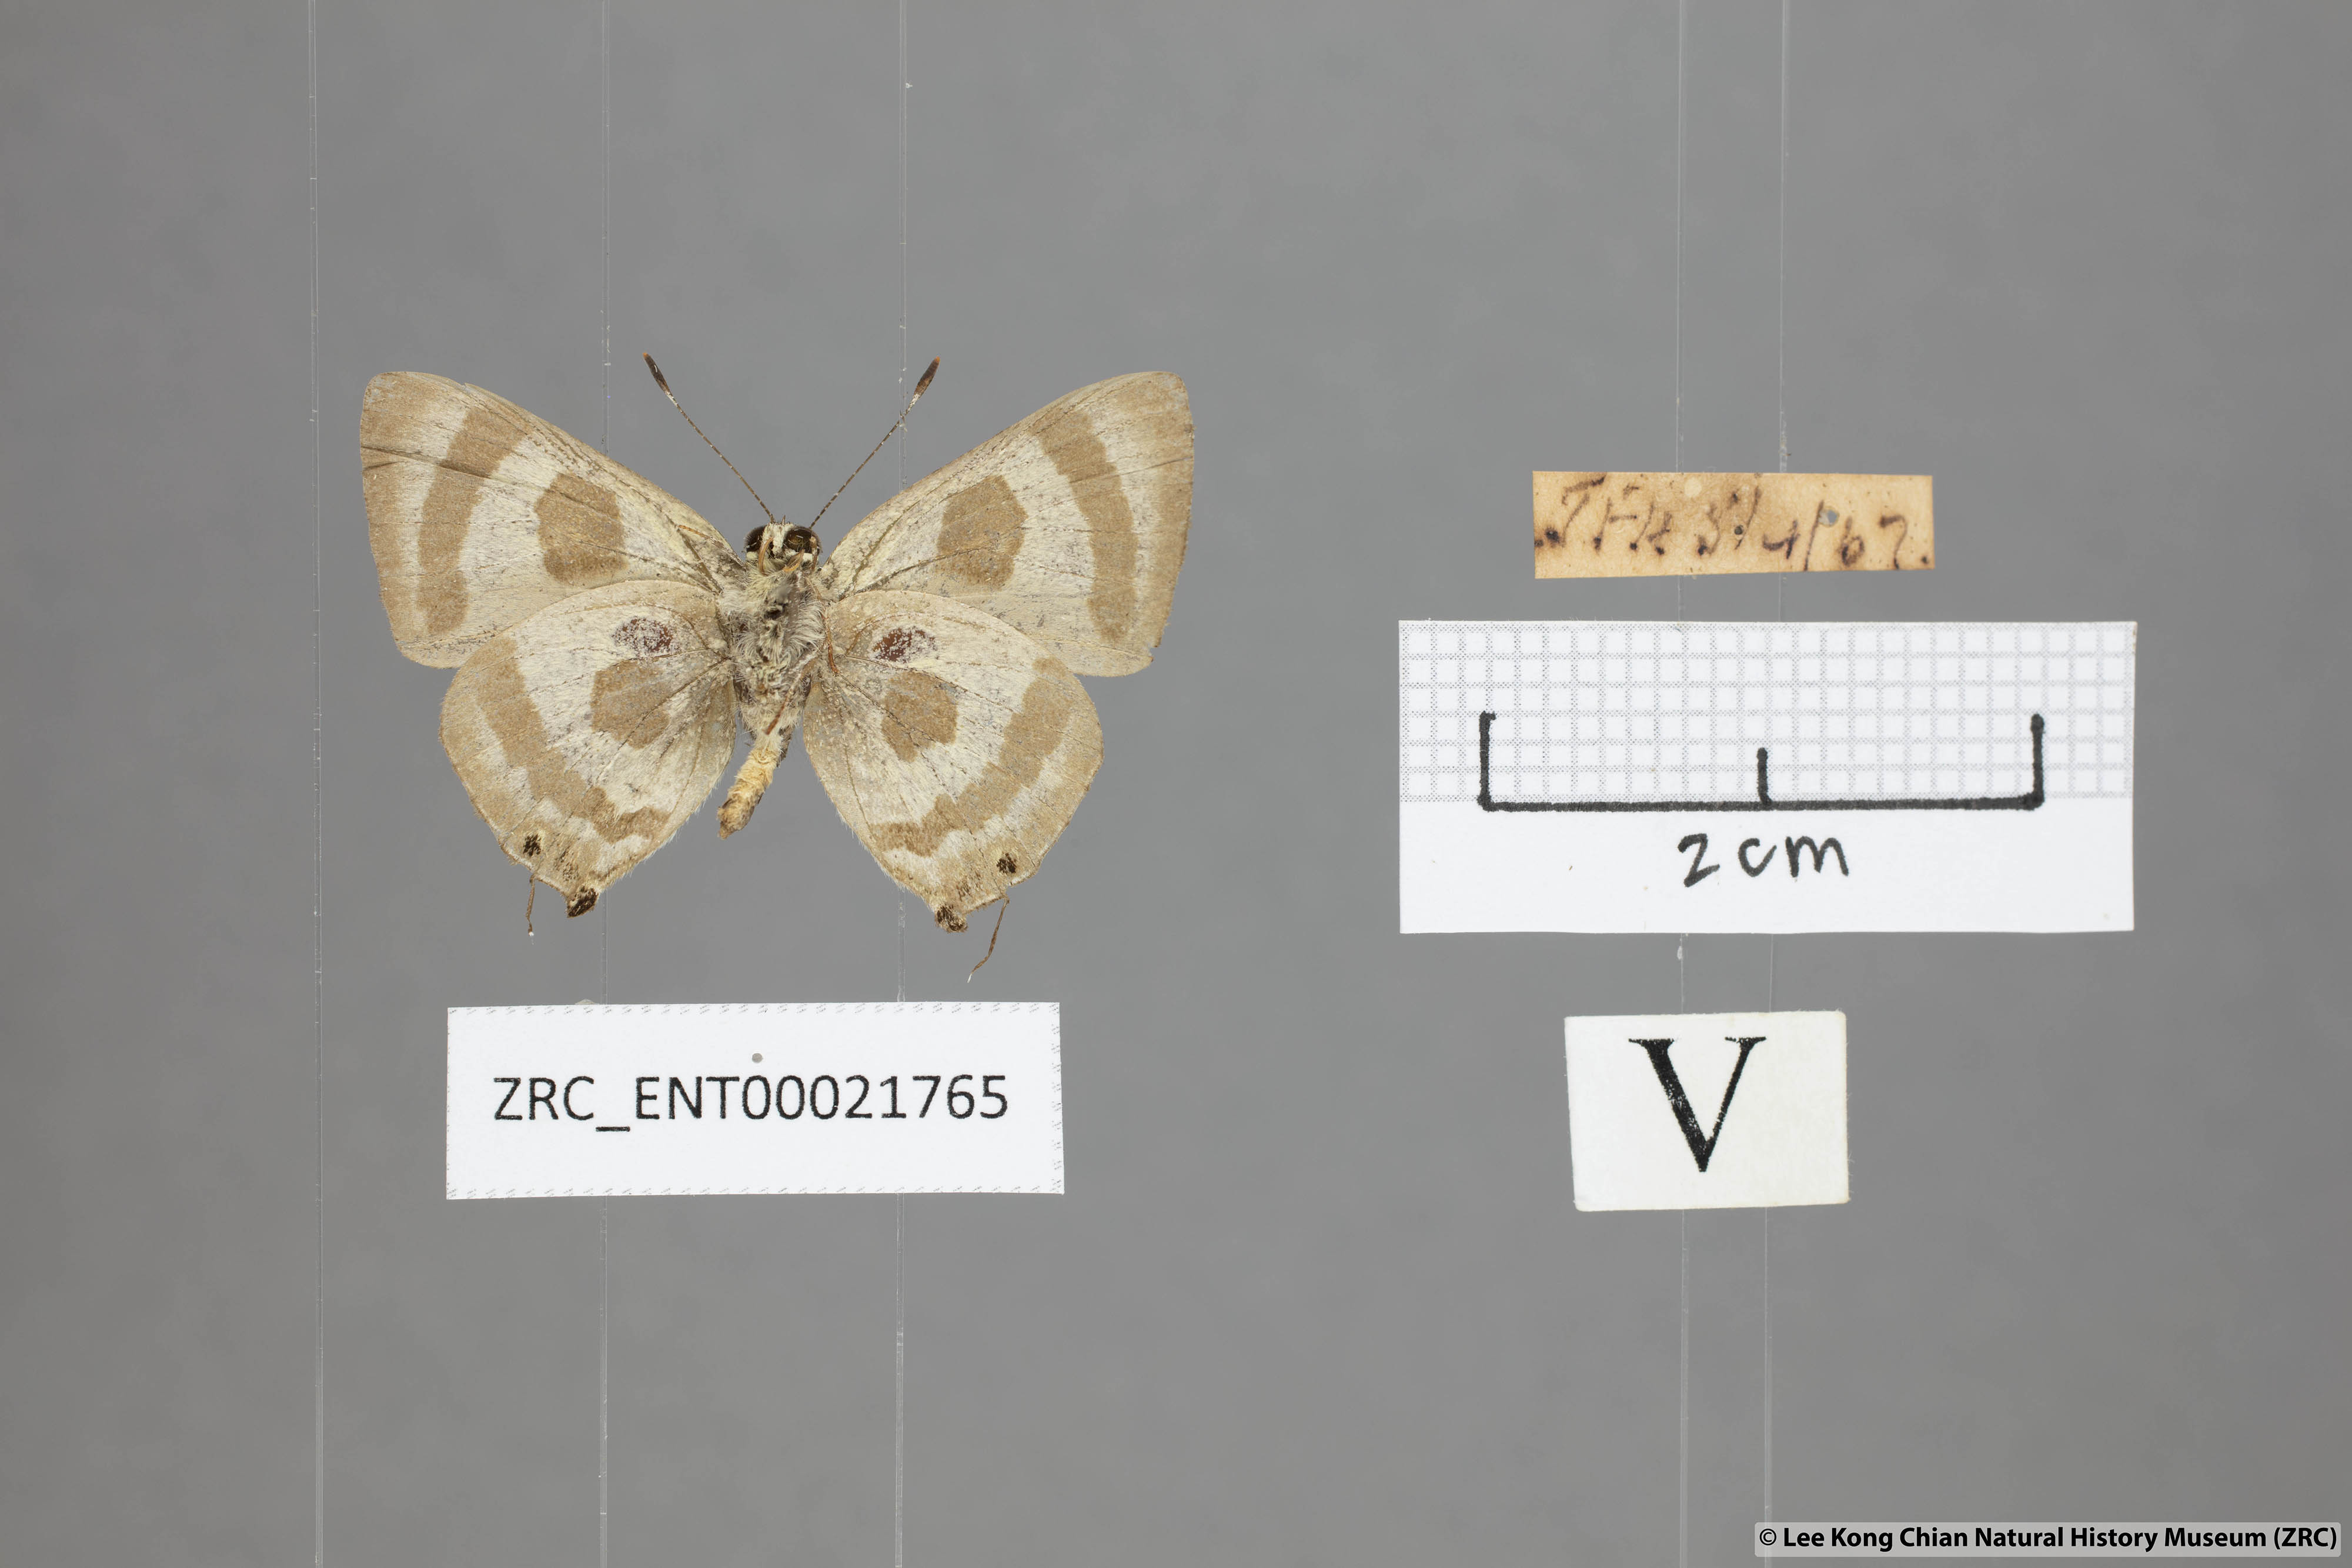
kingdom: Animalia
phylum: Arthropoda
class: Insecta
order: Lepidoptera
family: Lycaenidae
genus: Rapala
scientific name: Rapala
